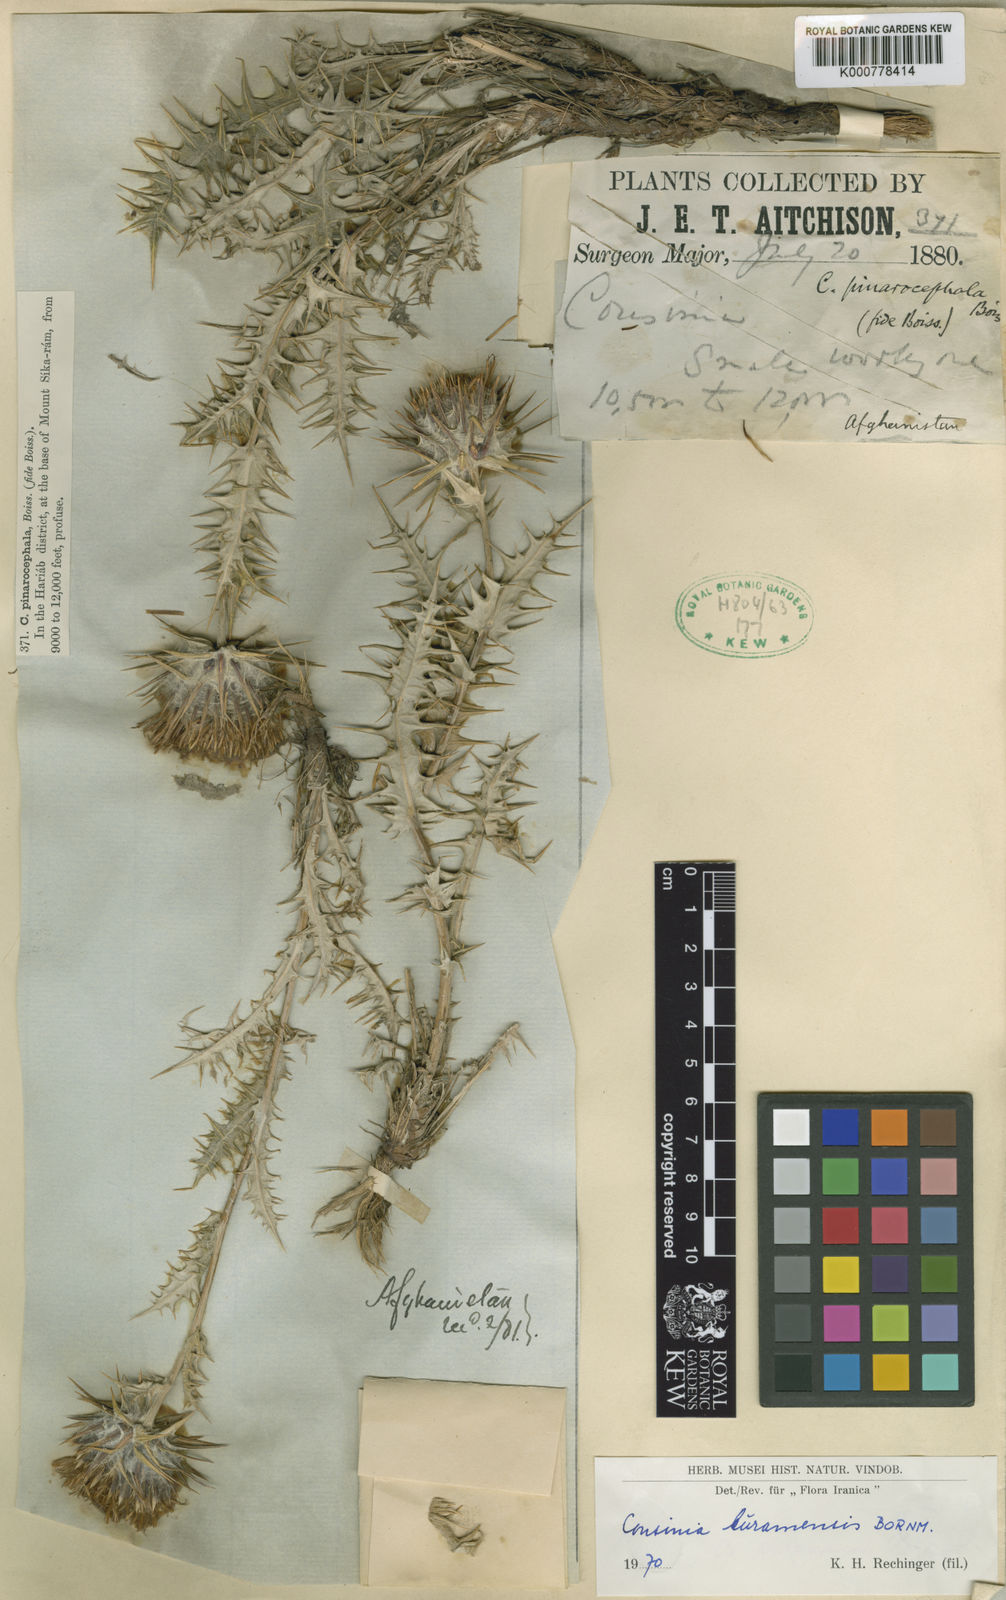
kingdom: Plantae
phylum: Tracheophyta
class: Magnoliopsida
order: Asterales
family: Asteraceae
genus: Cousinia
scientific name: Cousinia kuramensis
